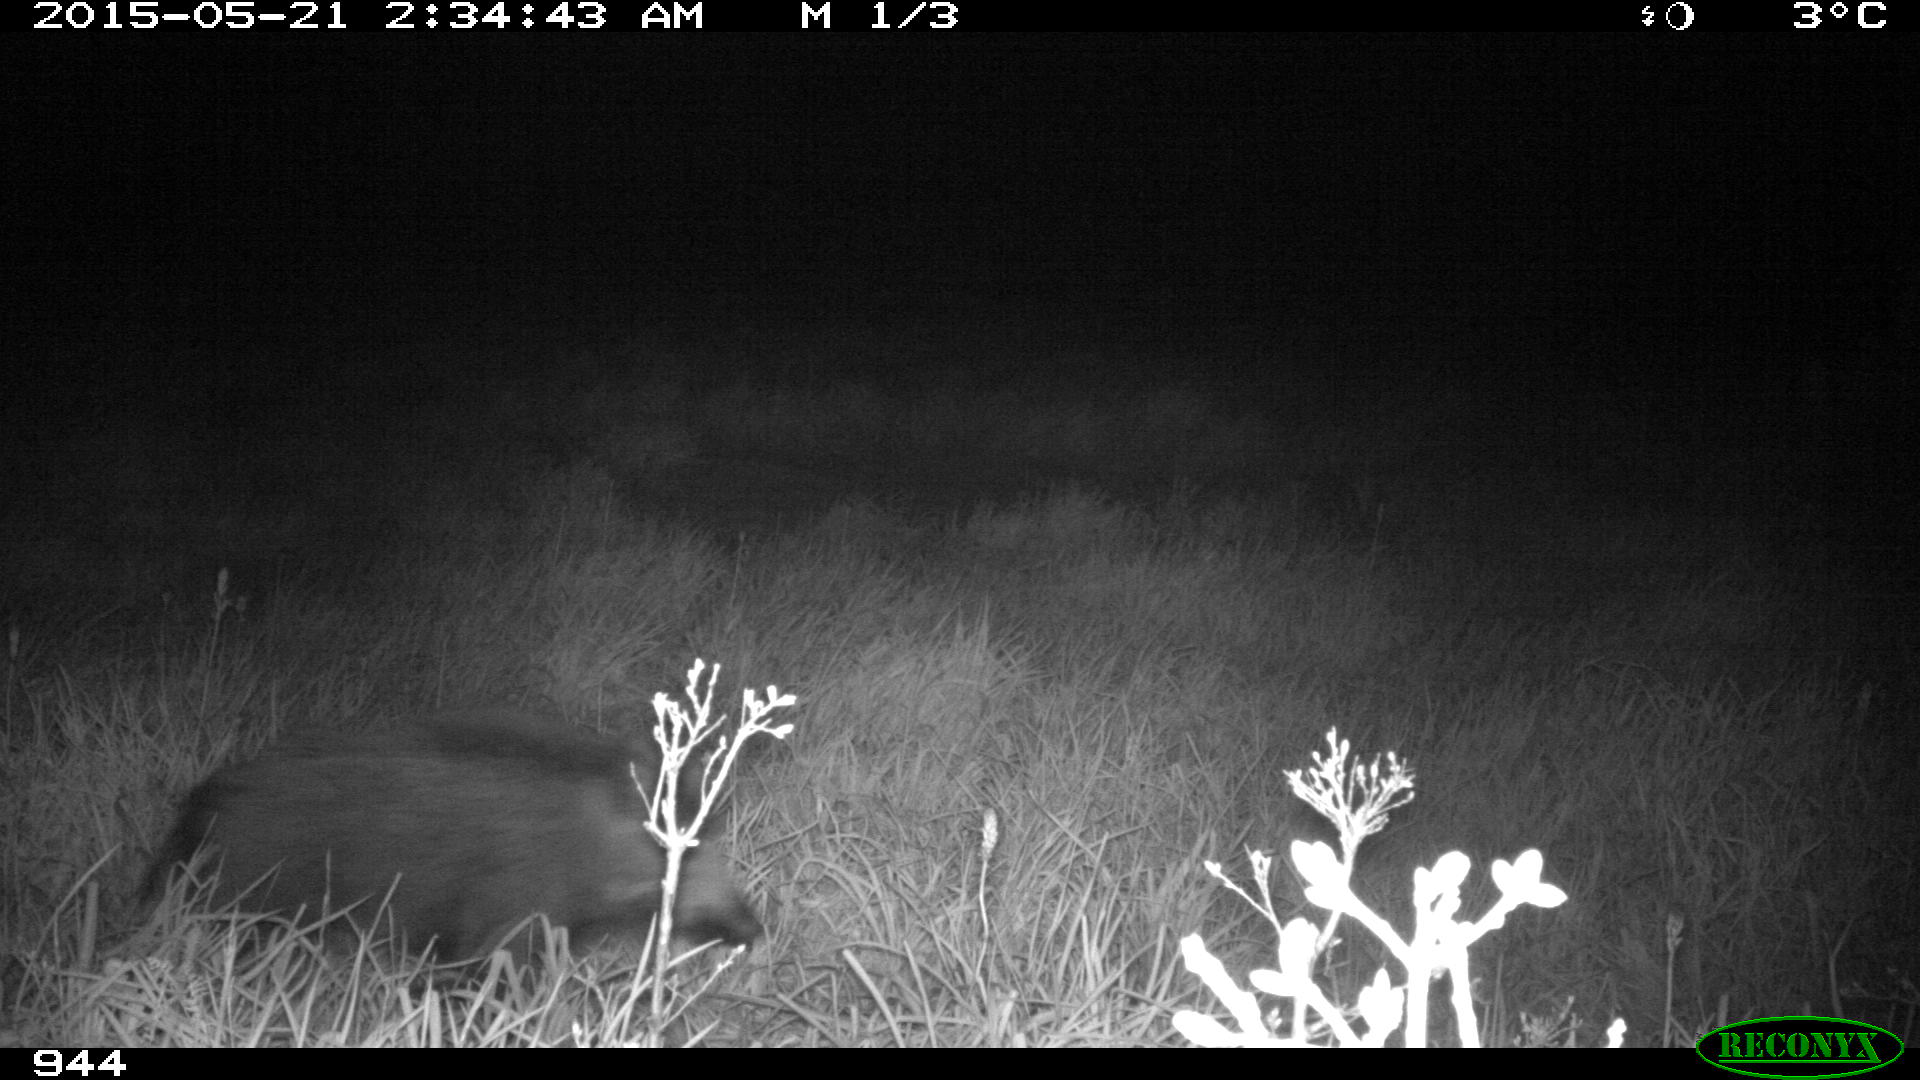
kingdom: Animalia
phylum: Chordata
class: Mammalia
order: Artiodactyla
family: Suidae
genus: Sus
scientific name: Sus scrofa
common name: Wild boar
